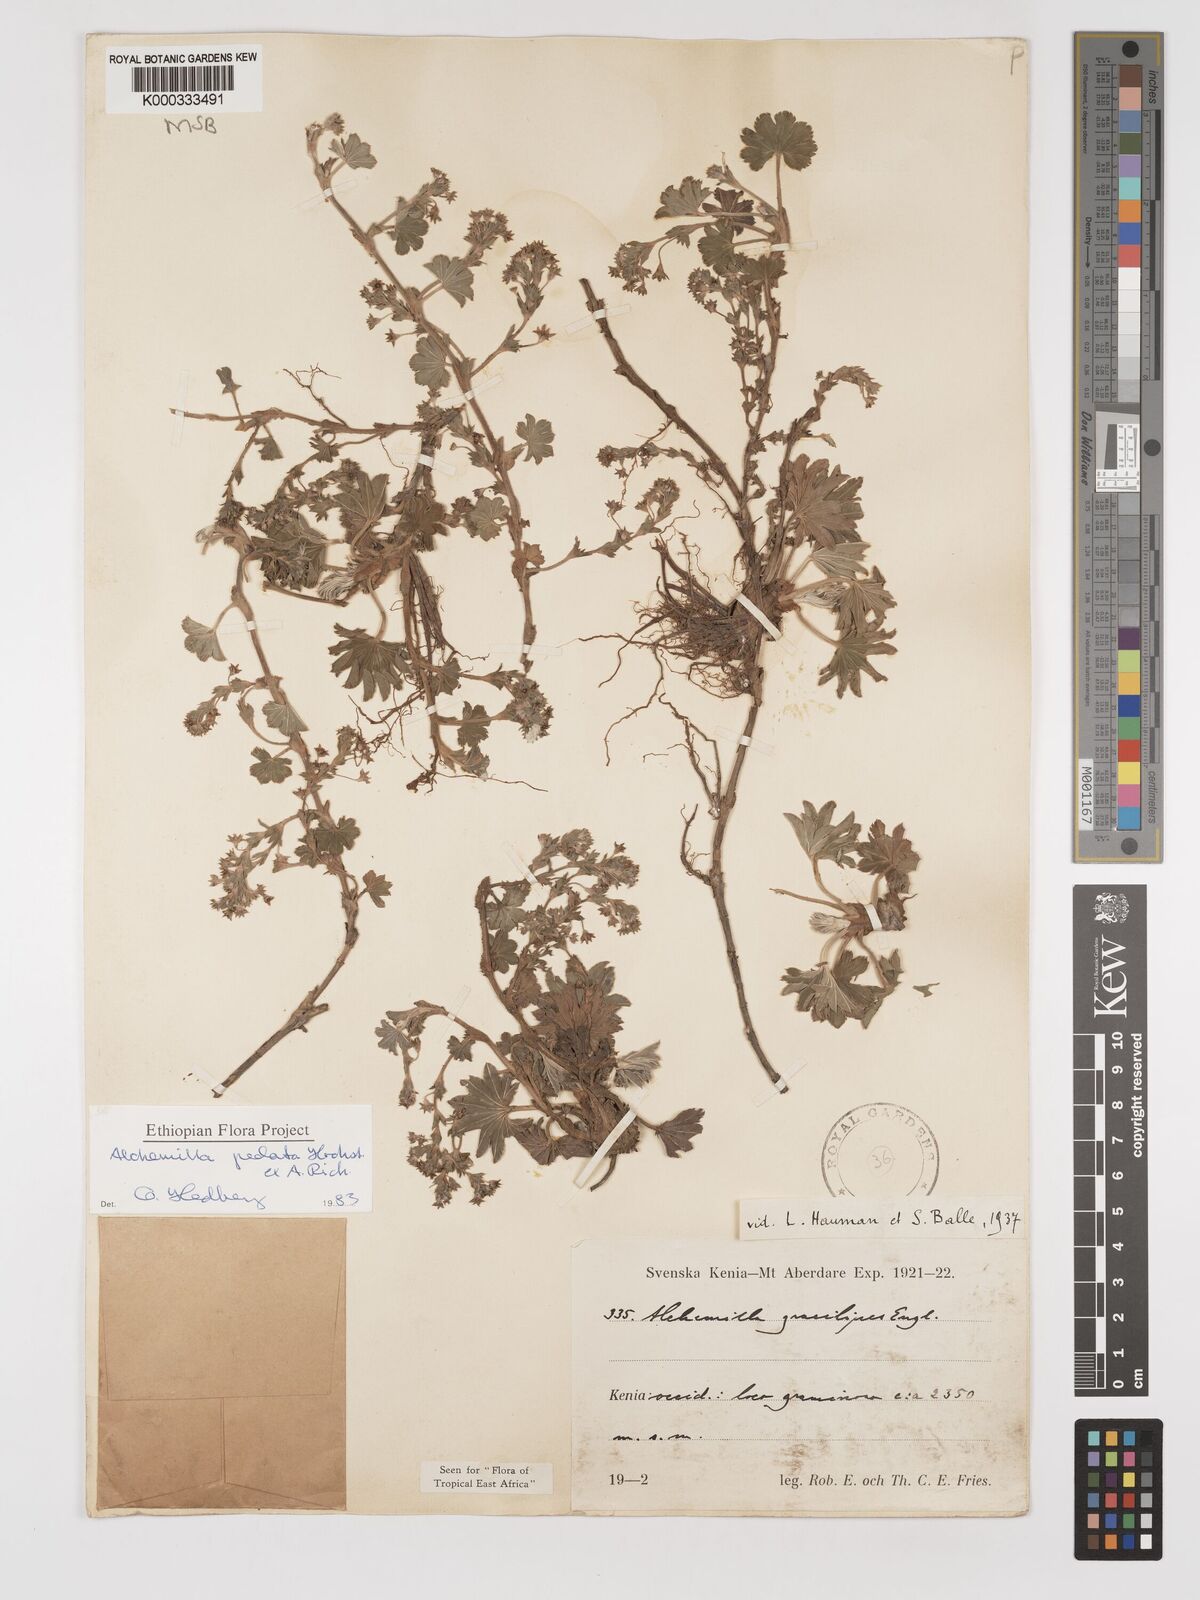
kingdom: Plantae
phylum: Tracheophyta
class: Magnoliopsida
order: Rosales
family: Rosaceae
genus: Alchemilla
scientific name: Alchemilla pedata
